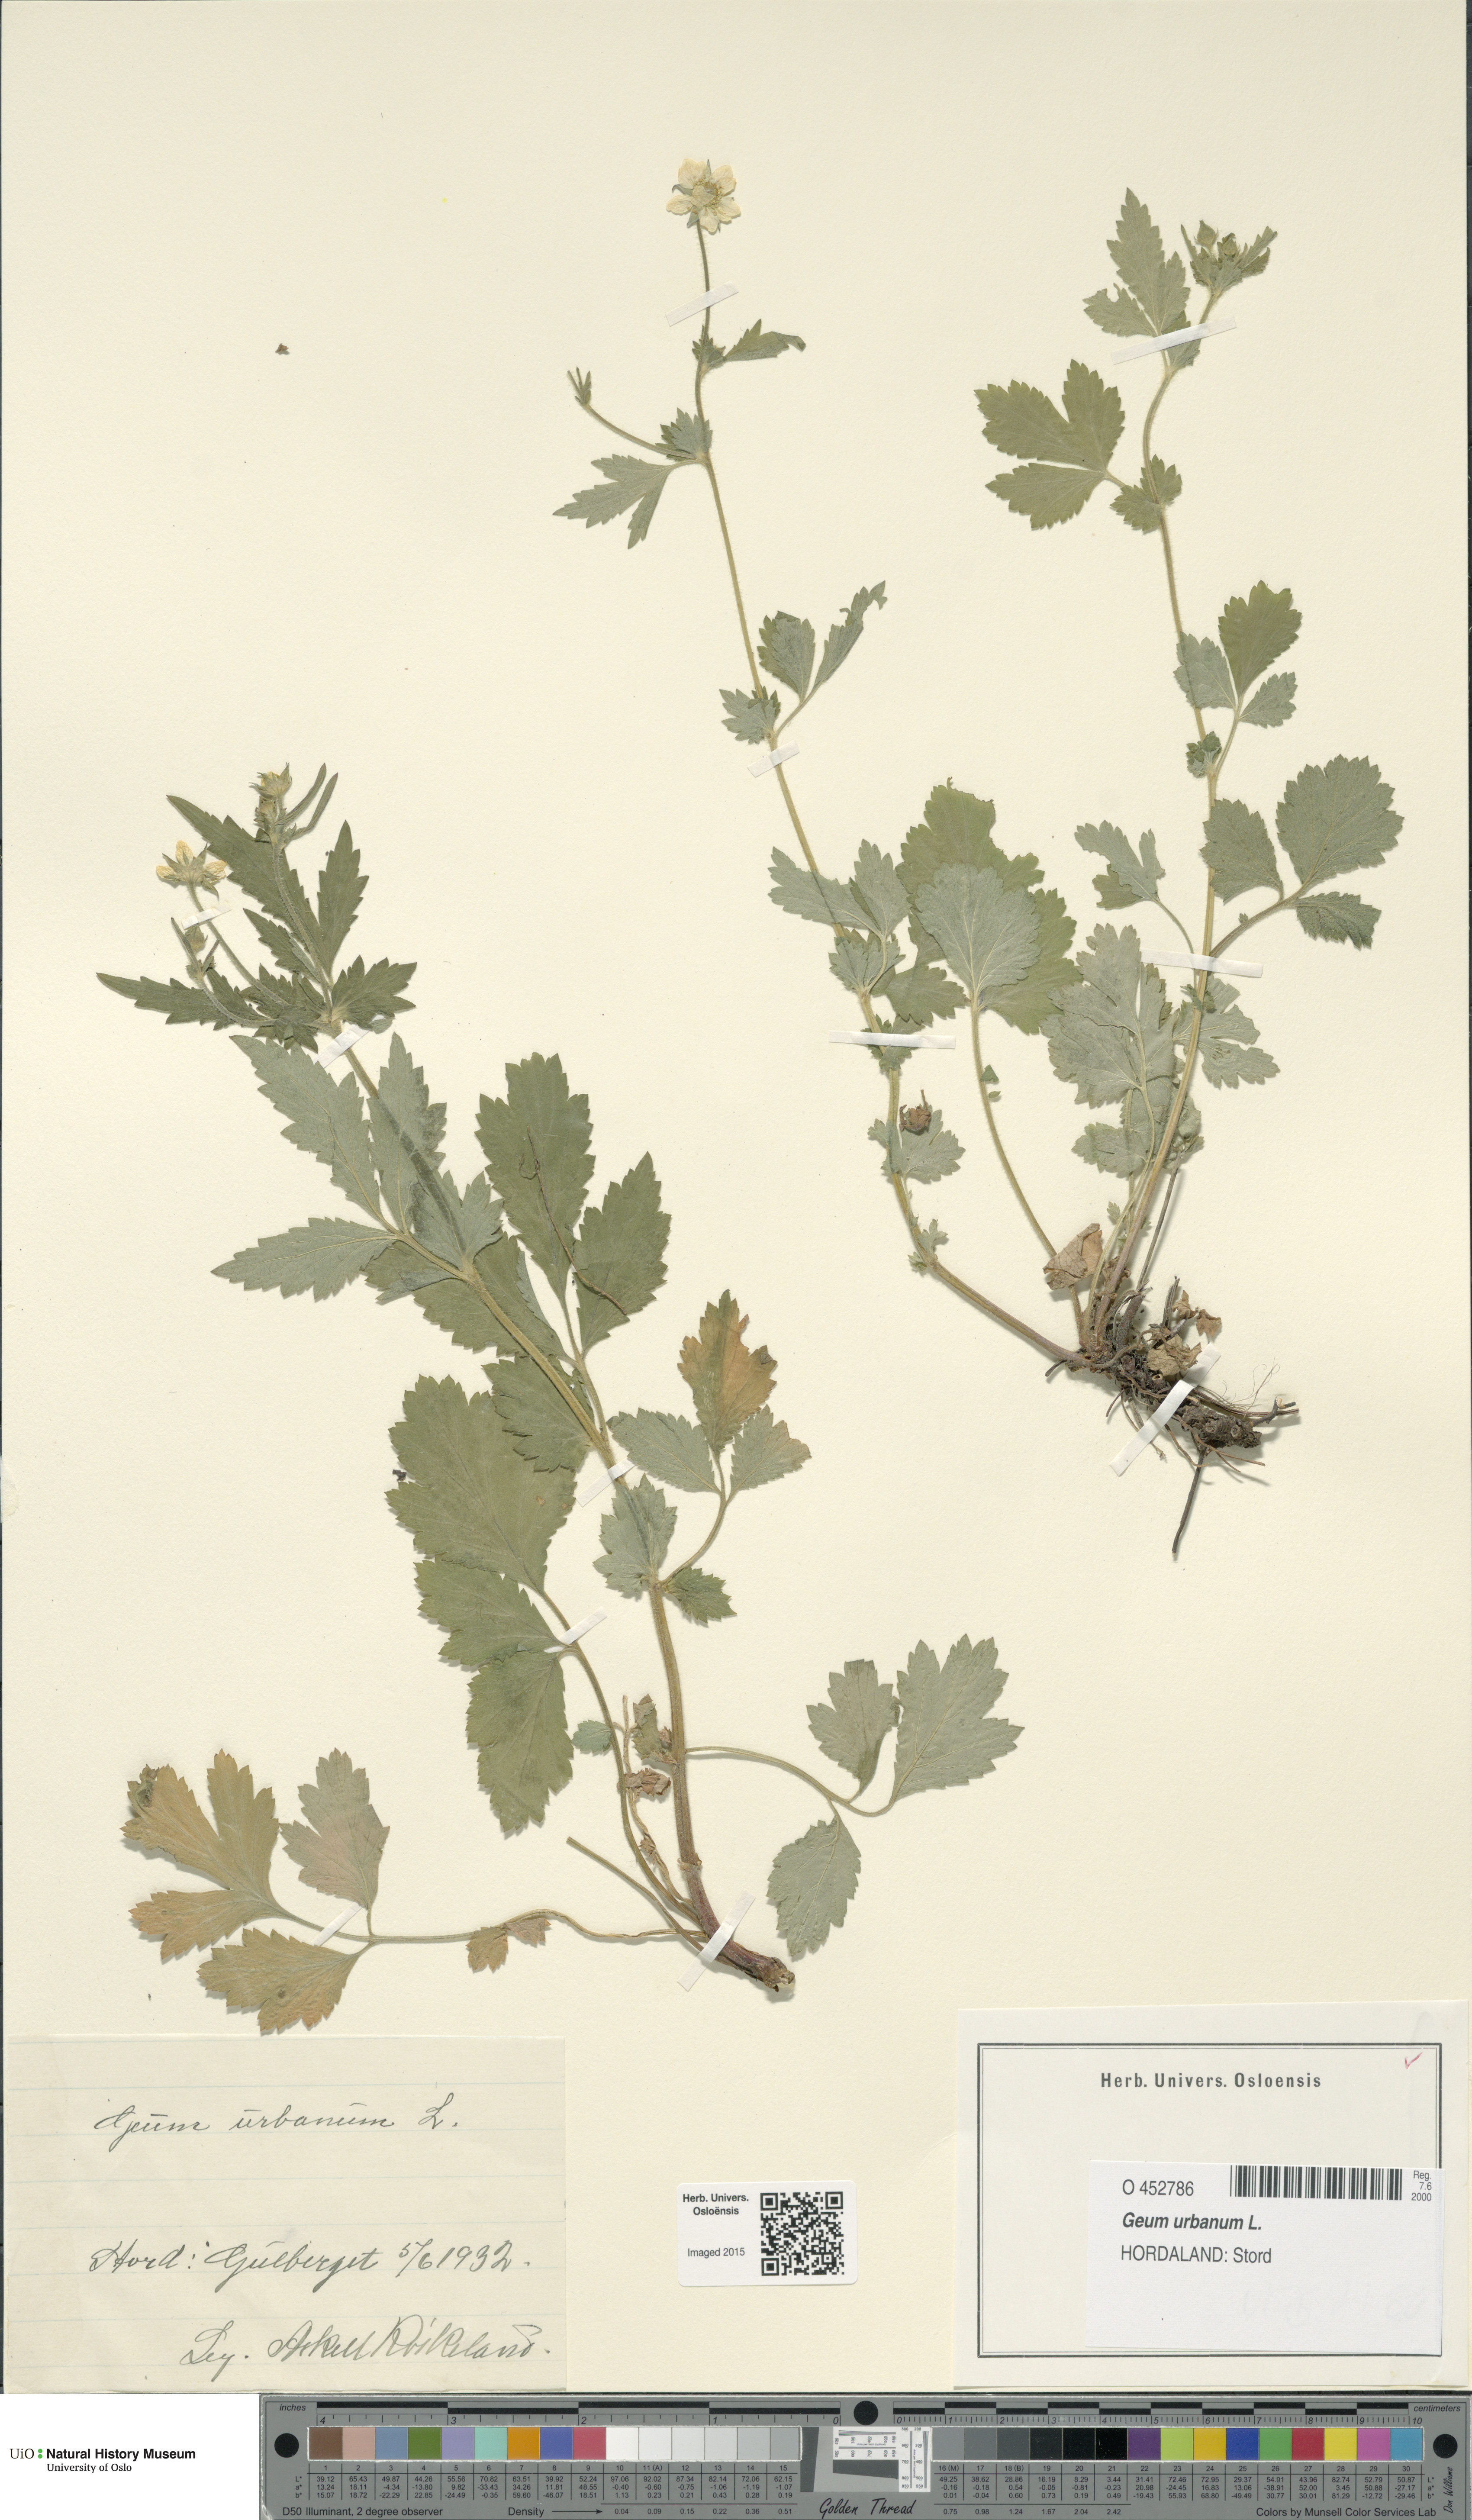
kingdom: Plantae
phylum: Tracheophyta
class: Magnoliopsida
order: Rosales
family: Rosaceae
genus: Geum
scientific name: Geum urbanum
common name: Wood avens
